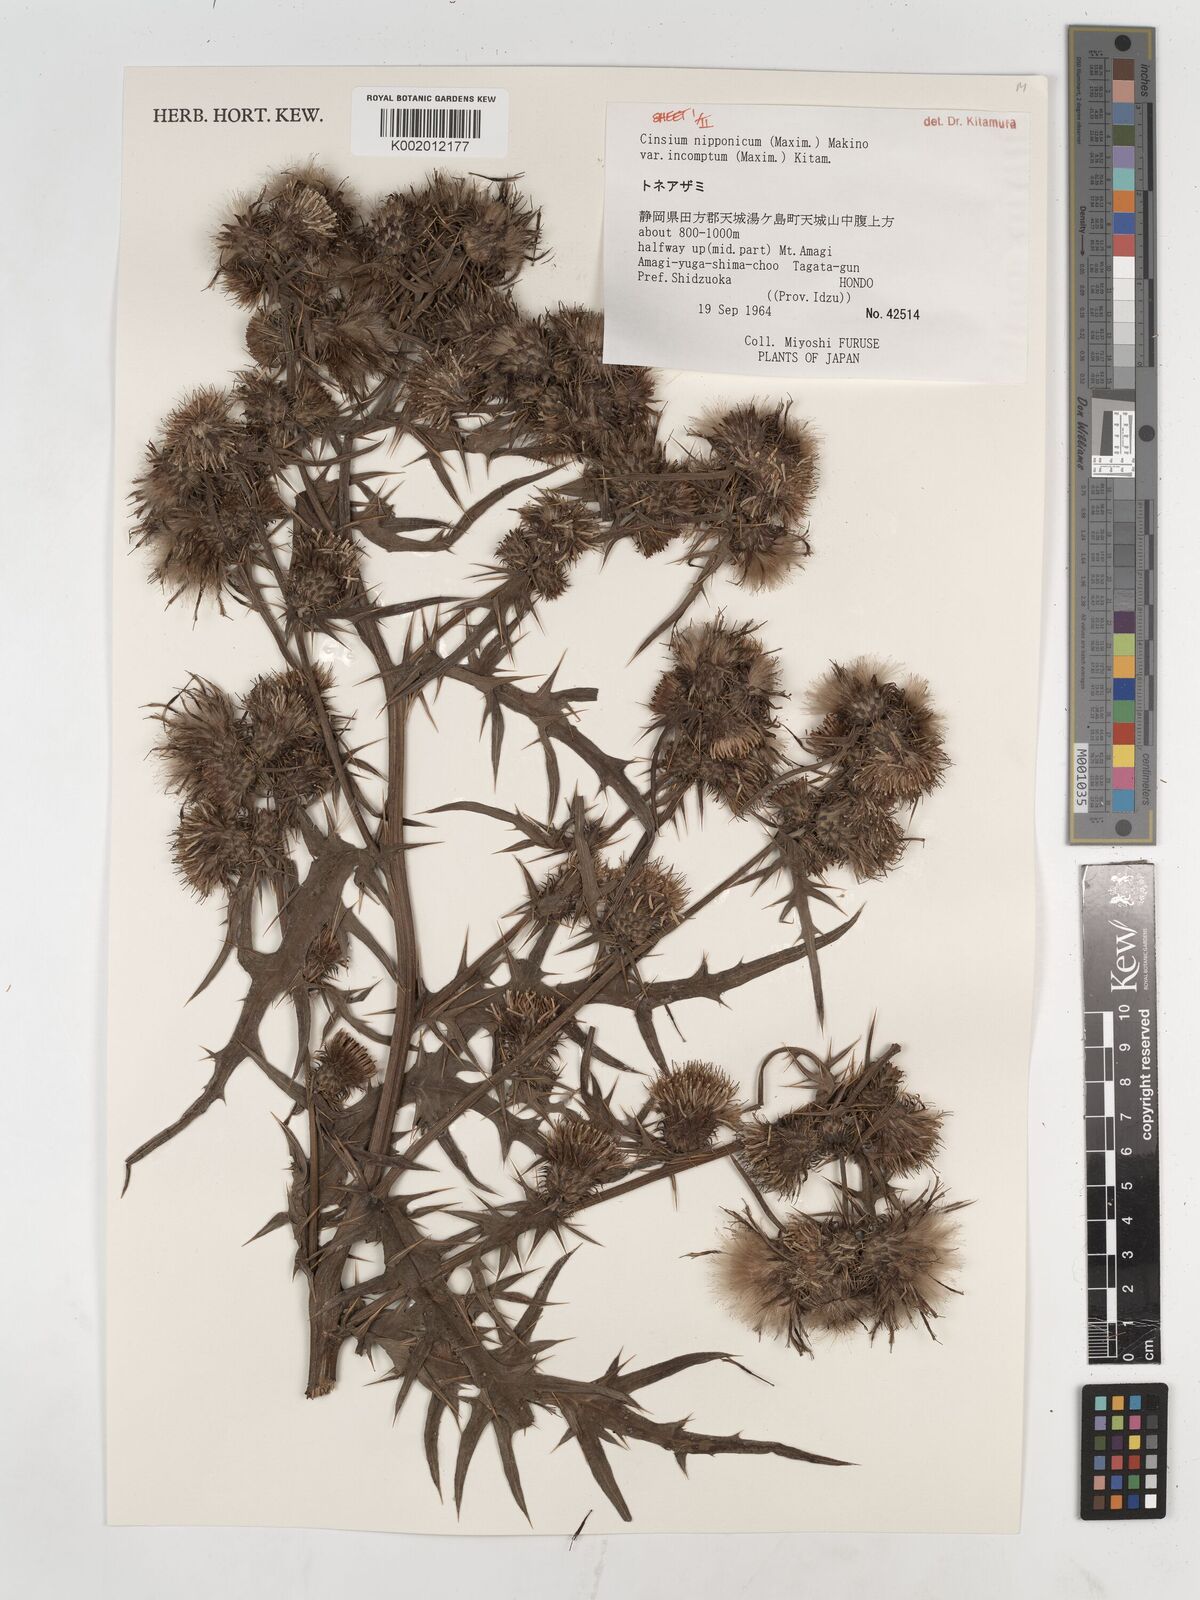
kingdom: Plantae
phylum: Tracheophyta
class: Magnoliopsida
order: Asterales
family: Asteraceae
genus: Cirsium
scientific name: Cirsium nipponicum
